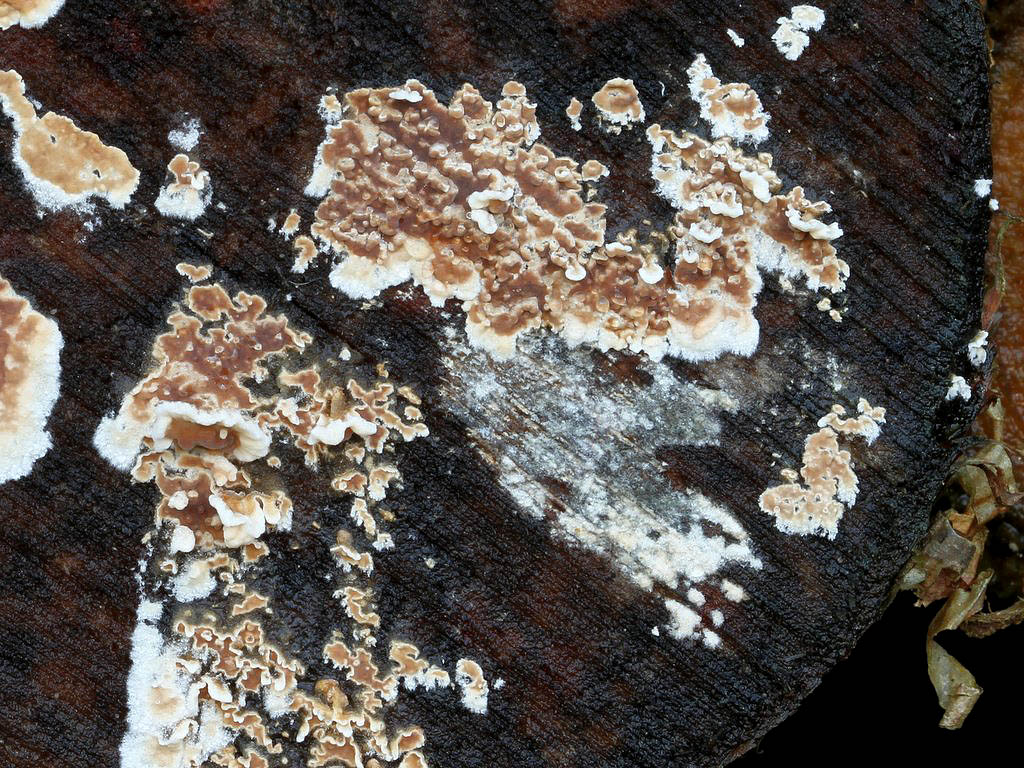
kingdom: Fungi
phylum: Basidiomycota
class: Agaricomycetes
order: Agaricales
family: Physalacriaceae
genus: Cylindrobasidium
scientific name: Cylindrobasidium evolvens
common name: sprækkehinde
